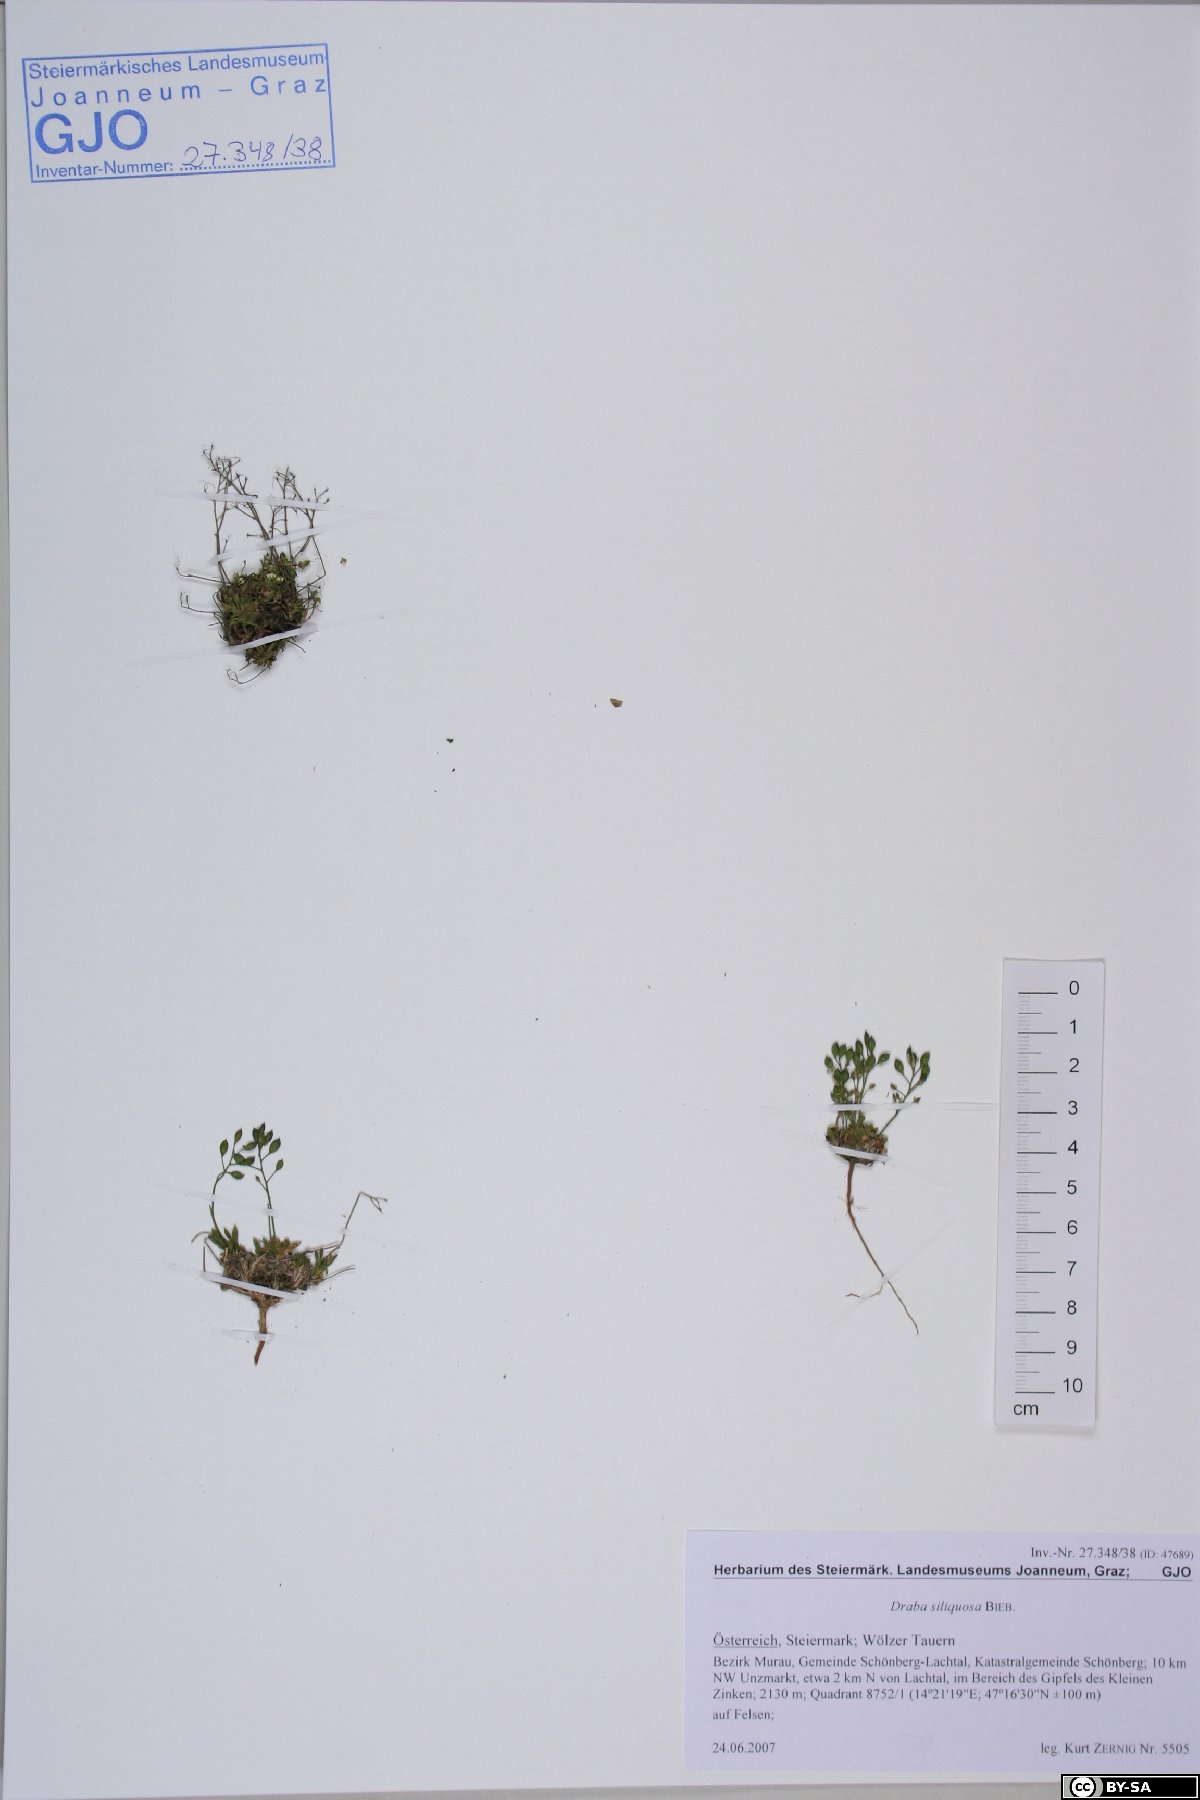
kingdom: Plantae
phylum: Tracheophyta
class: Magnoliopsida
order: Brassicales
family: Brassicaceae
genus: Draba
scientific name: Draba siliquosa
